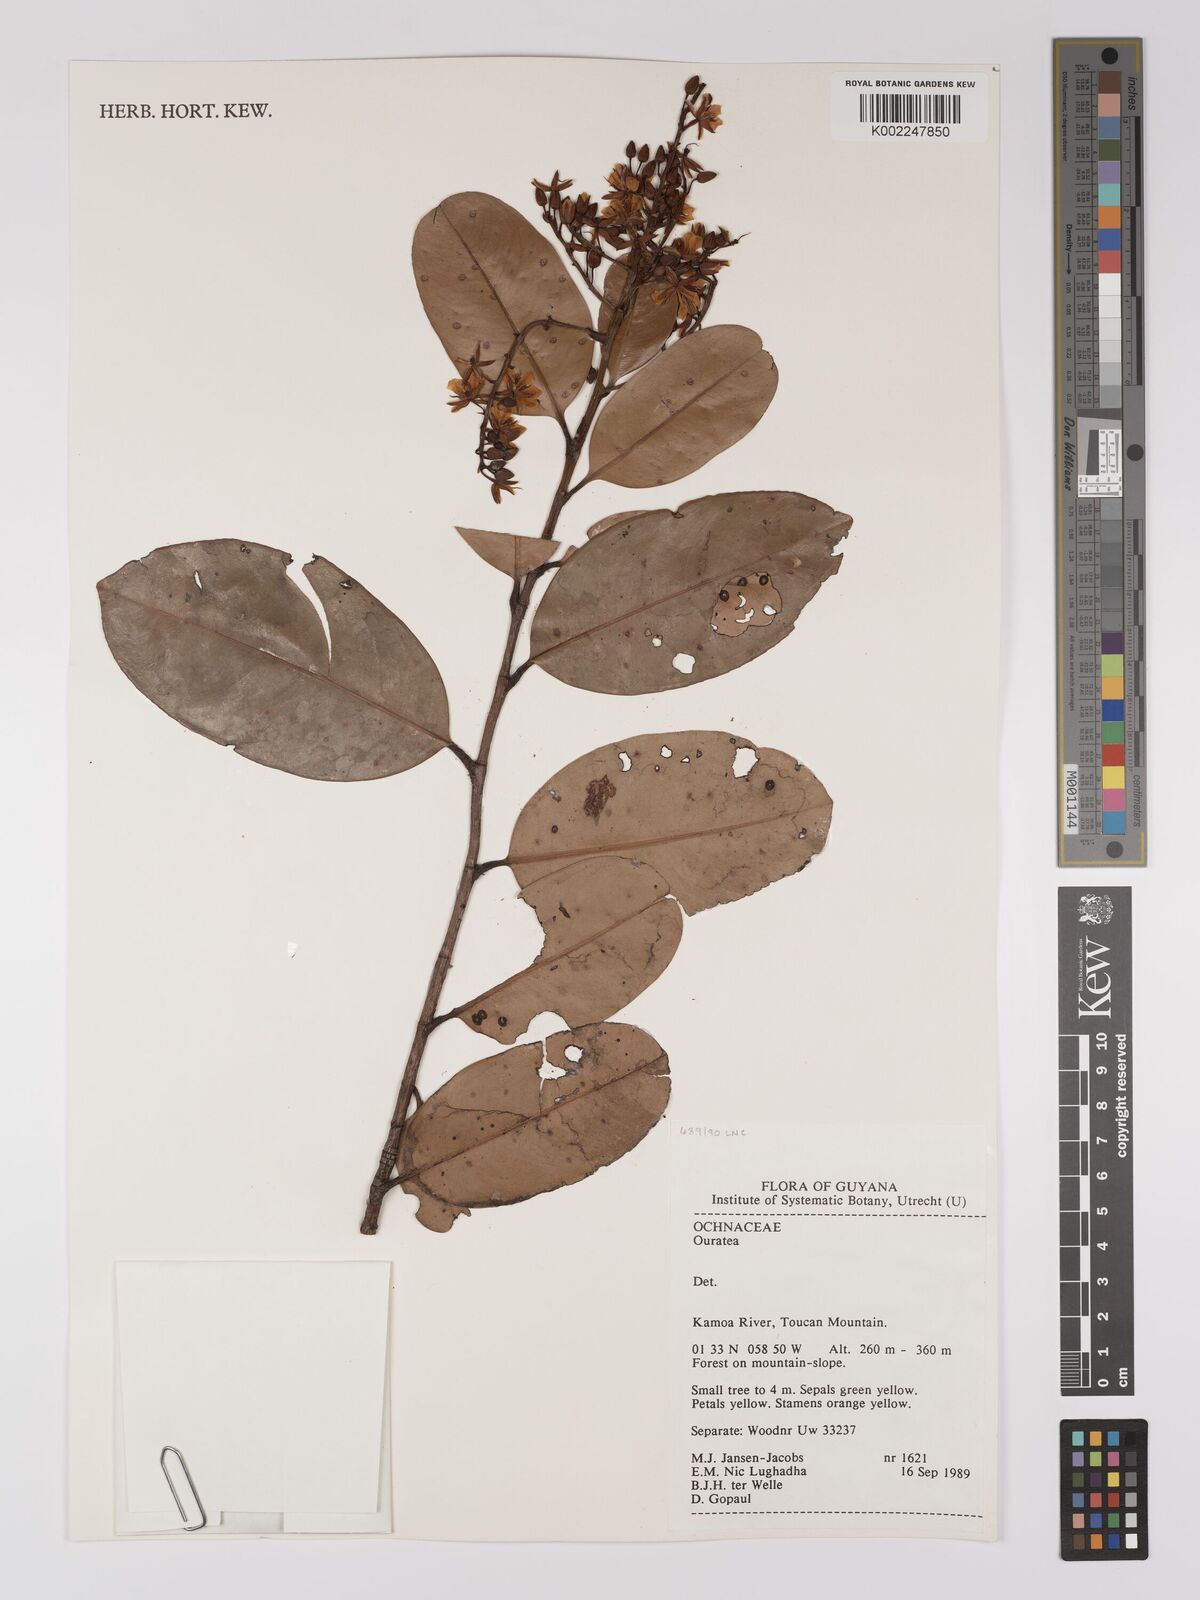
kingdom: Plantae
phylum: Tracheophyta
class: Magnoliopsida
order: Malpighiales
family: Ochnaceae
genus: Ouratea
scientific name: Ouratea
